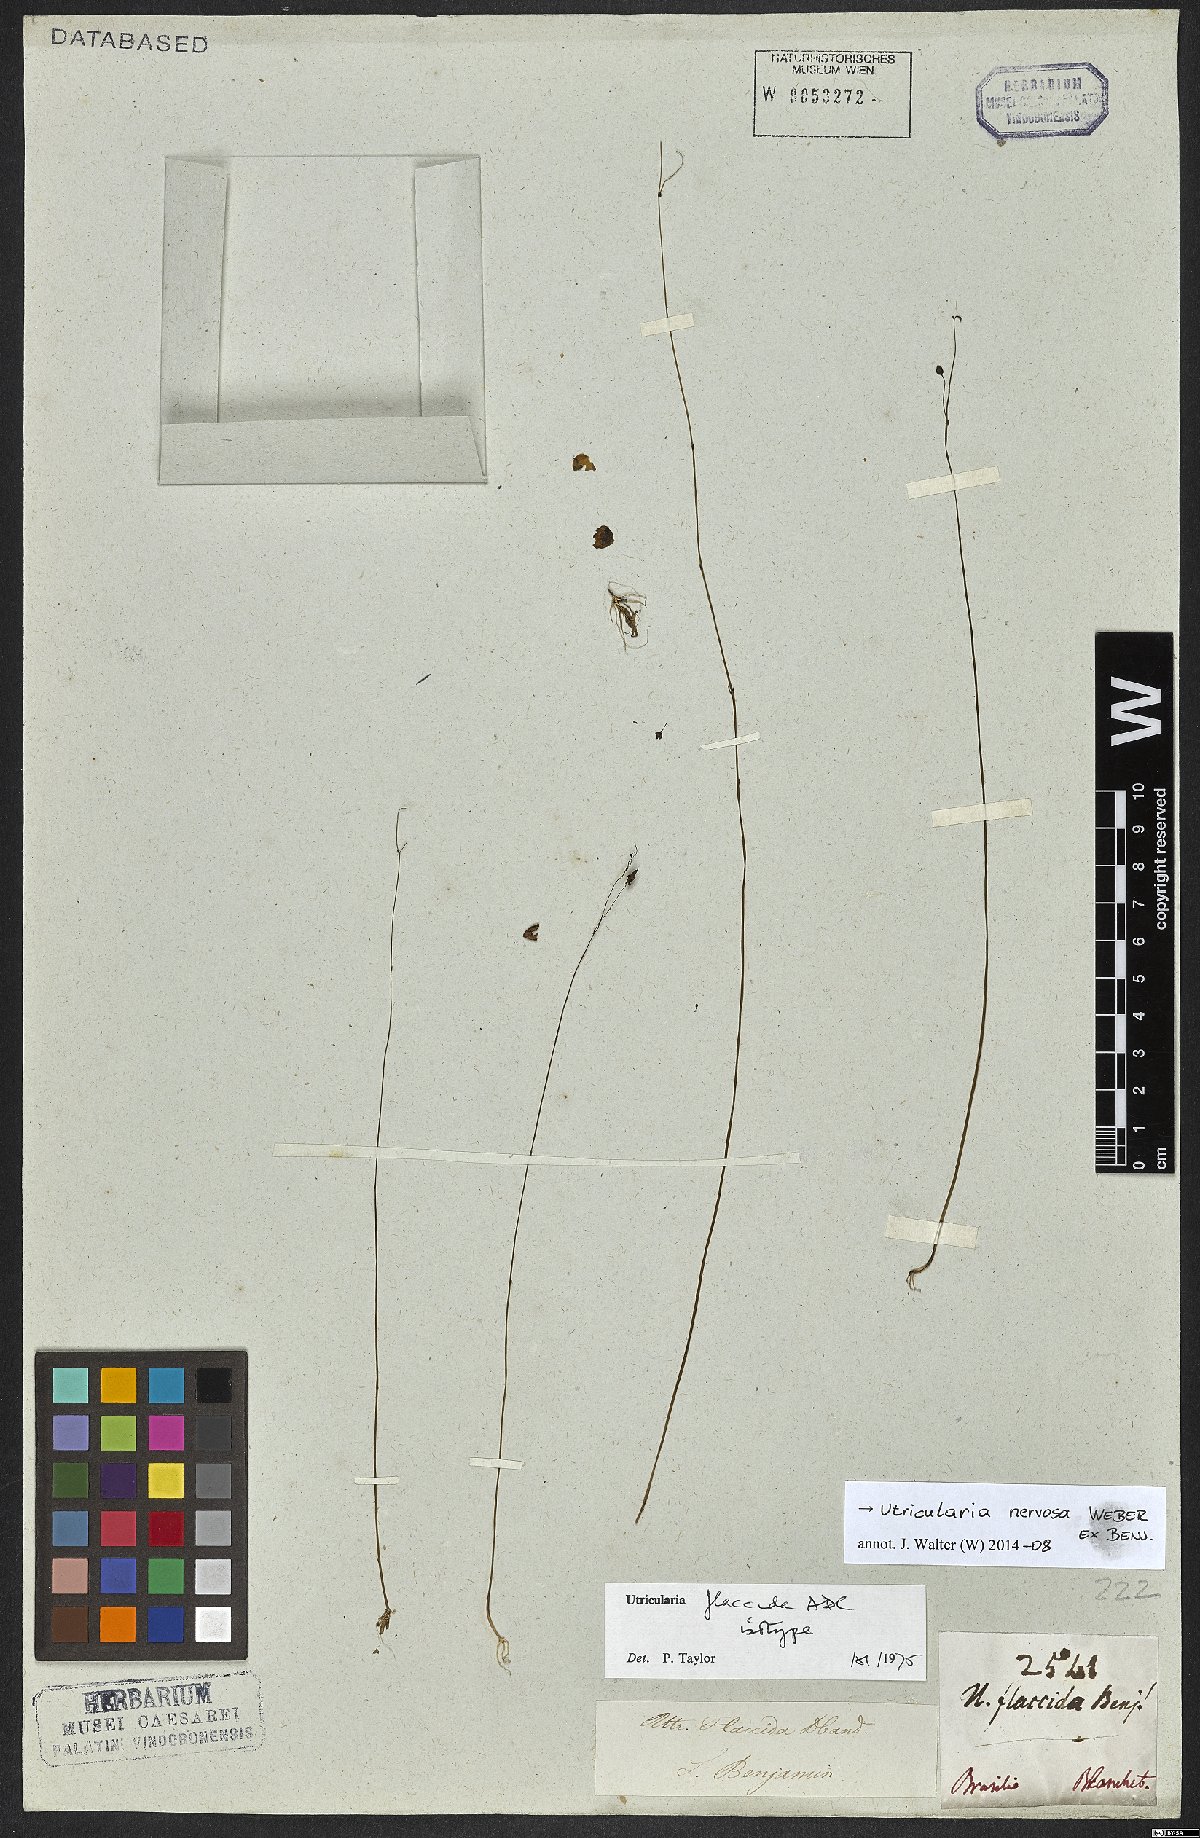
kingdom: Plantae
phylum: Tracheophyta
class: Magnoliopsida
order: Lamiales
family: Lentibulariaceae
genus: Utricularia
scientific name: Utricularia nervosa
